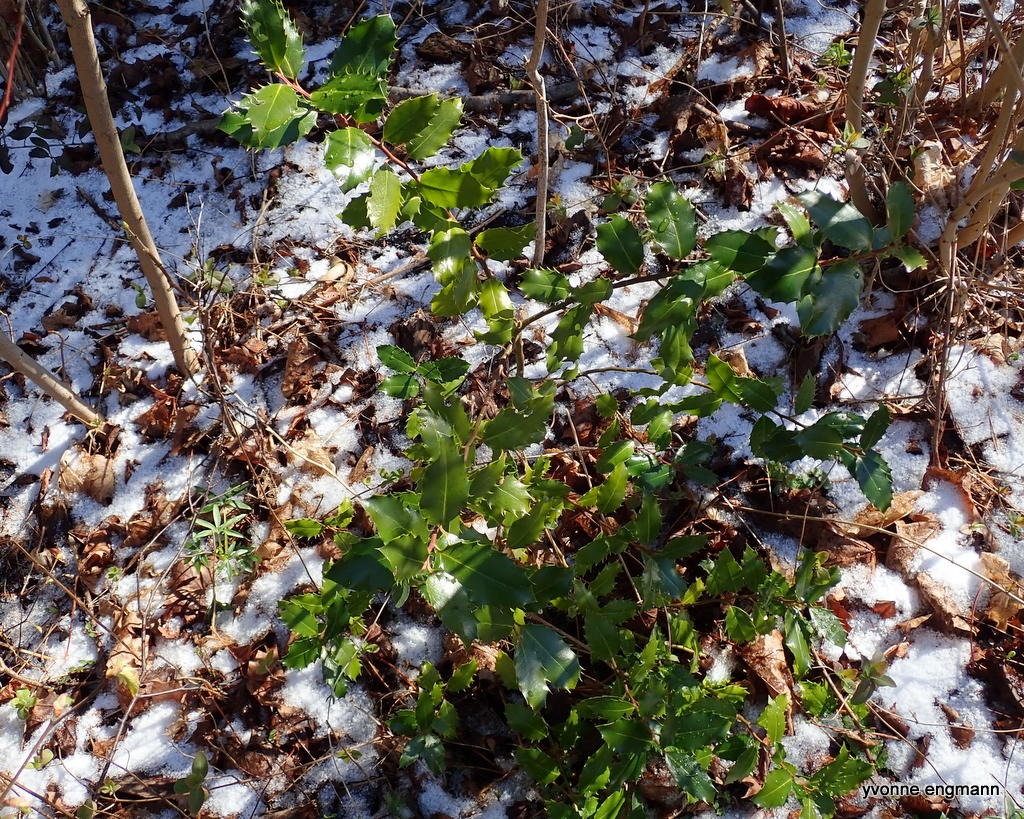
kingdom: Plantae
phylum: Tracheophyta
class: Magnoliopsida
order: Aquifoliales
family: Aquifoliaceae
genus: Ilex
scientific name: Ilex aquifolium
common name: Kristtorn
